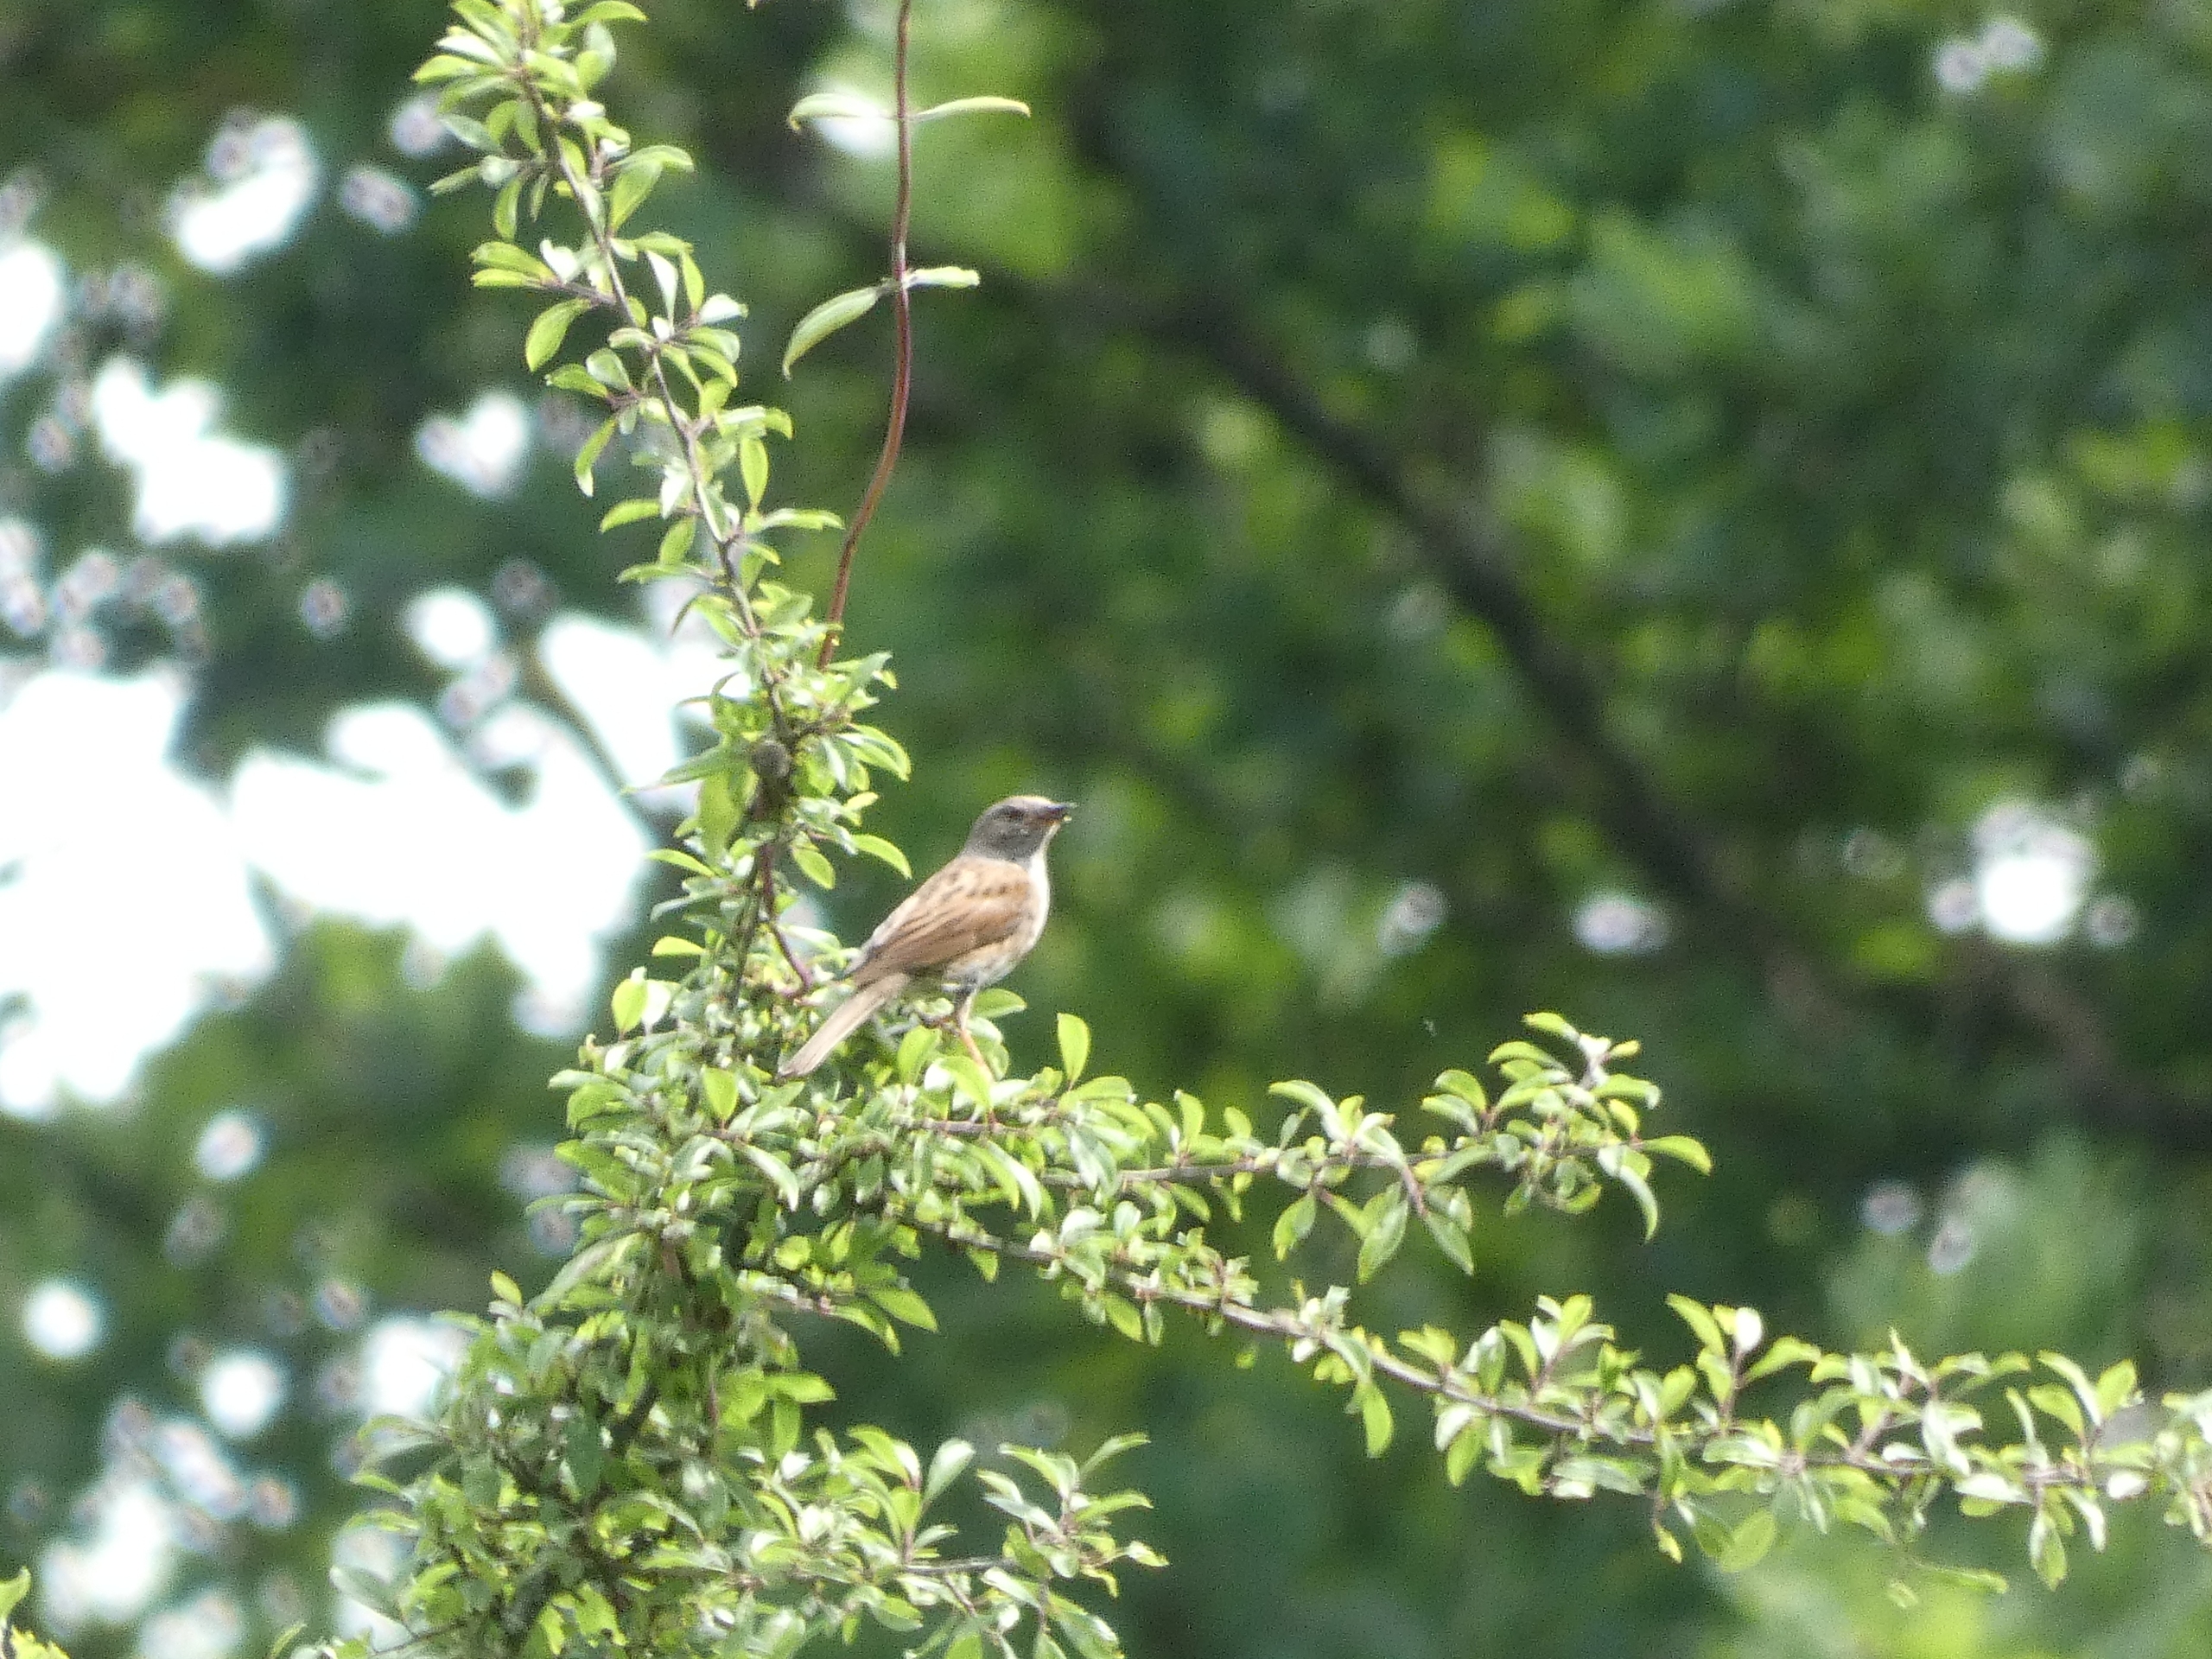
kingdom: Animalia
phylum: Chordata
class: Aves
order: Passeriformes
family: Prunellidae
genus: Prunella
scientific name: Prunella modularis
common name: Jernspurv
